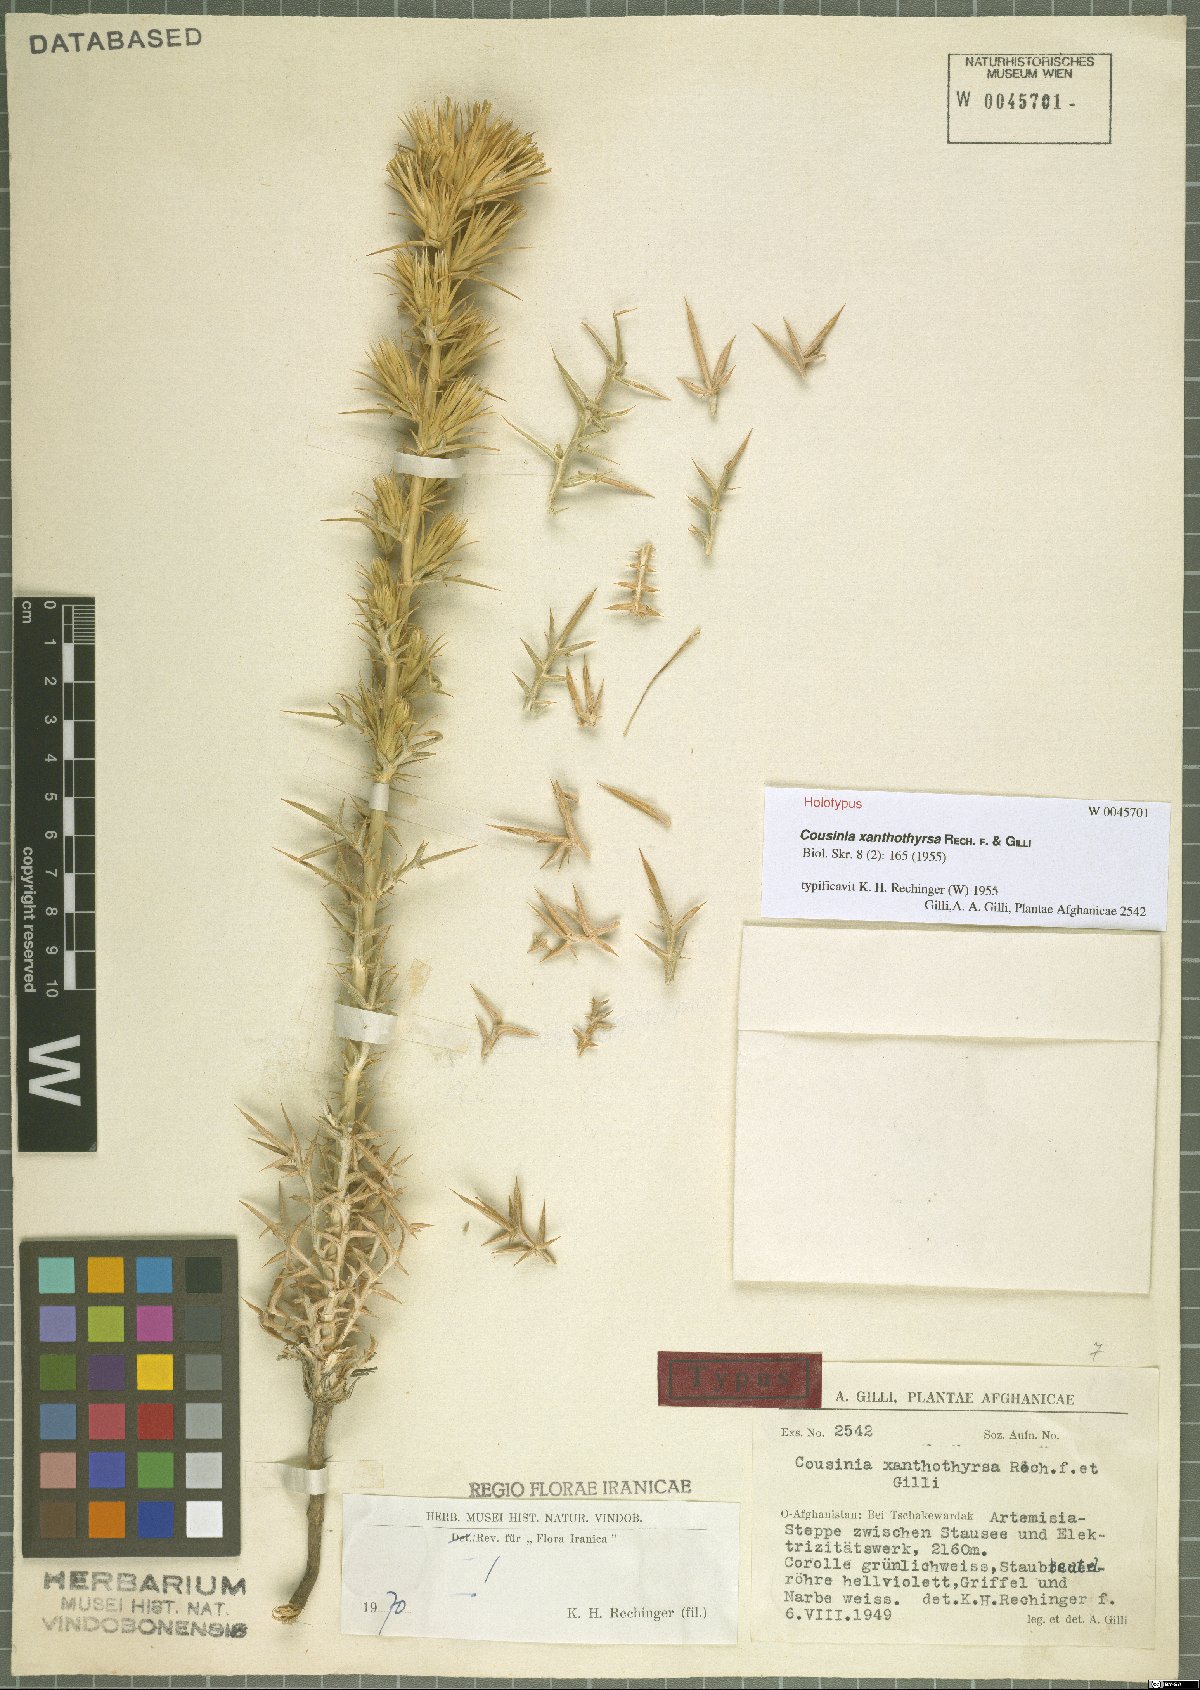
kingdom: Plantae
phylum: Tracheophyta
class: Magnoliopsida
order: Asterales
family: Asteraceae
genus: Cousinia
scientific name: Cousinia xanthothyrsa
